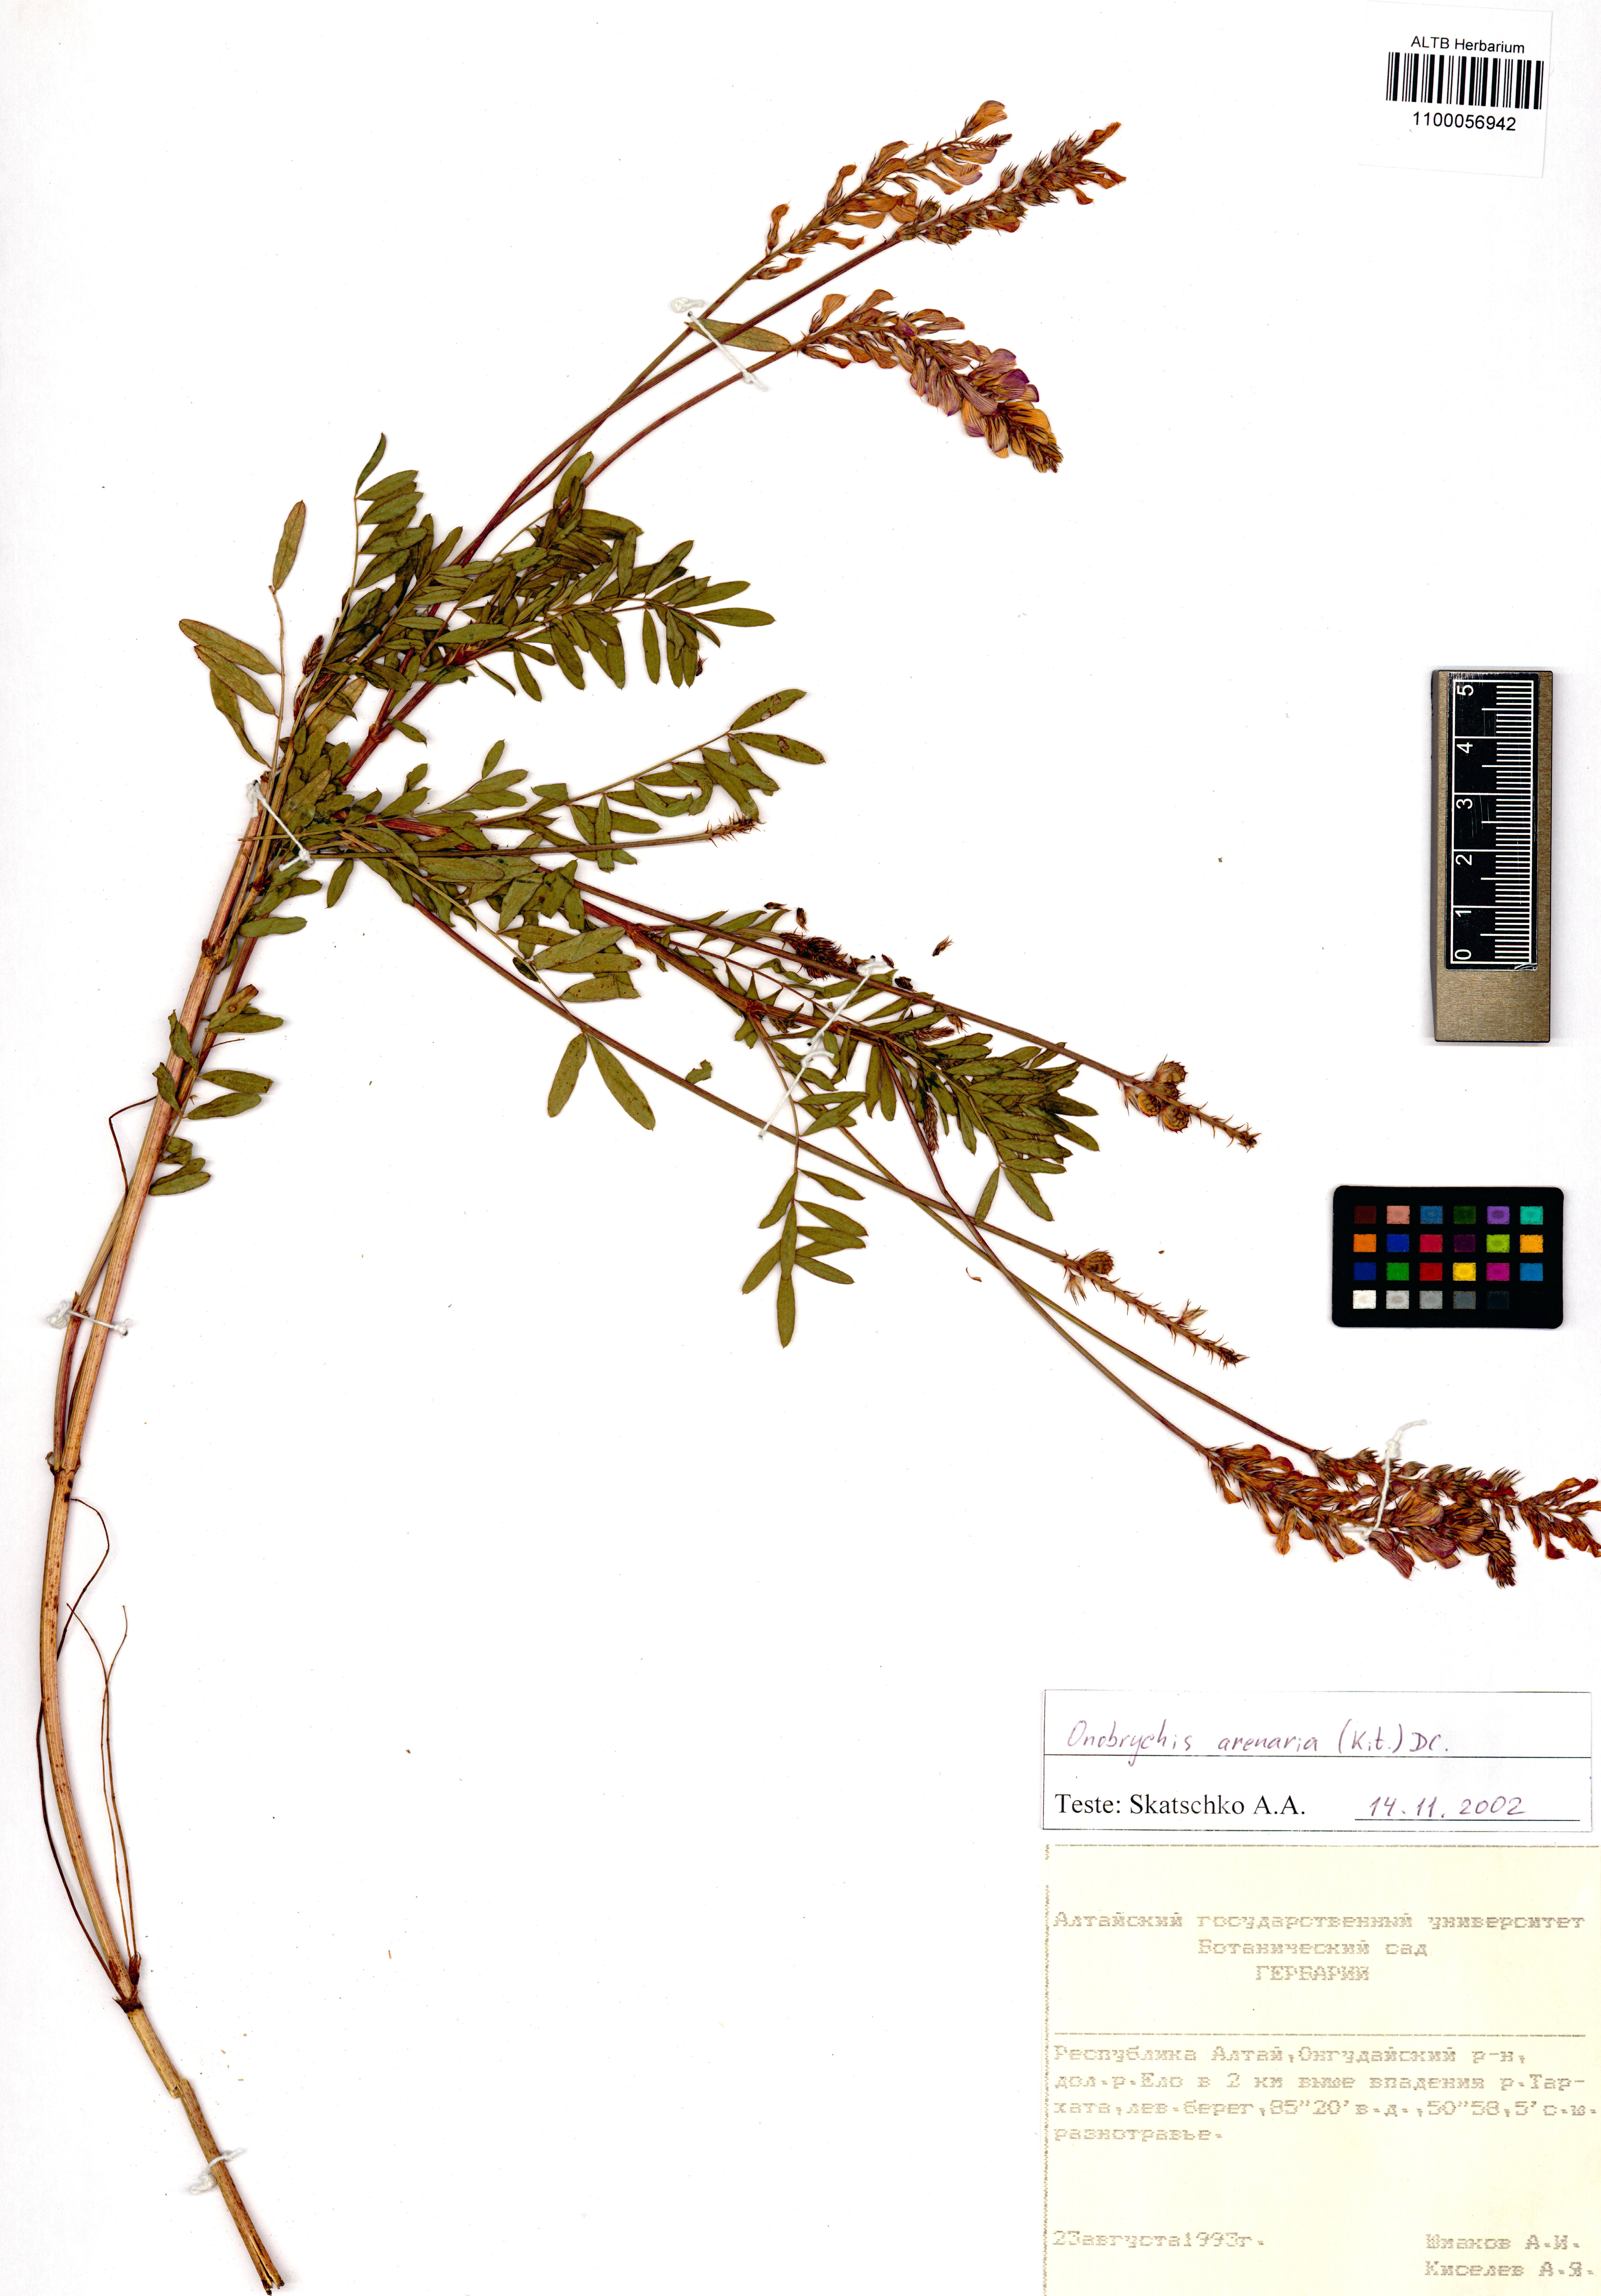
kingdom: Plantae
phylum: Tracheophyta
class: Magnoliopsida
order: Fabales
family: Fabaceae
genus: Onobrychis
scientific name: Onobrychis arenaria
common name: Sand esparcet
